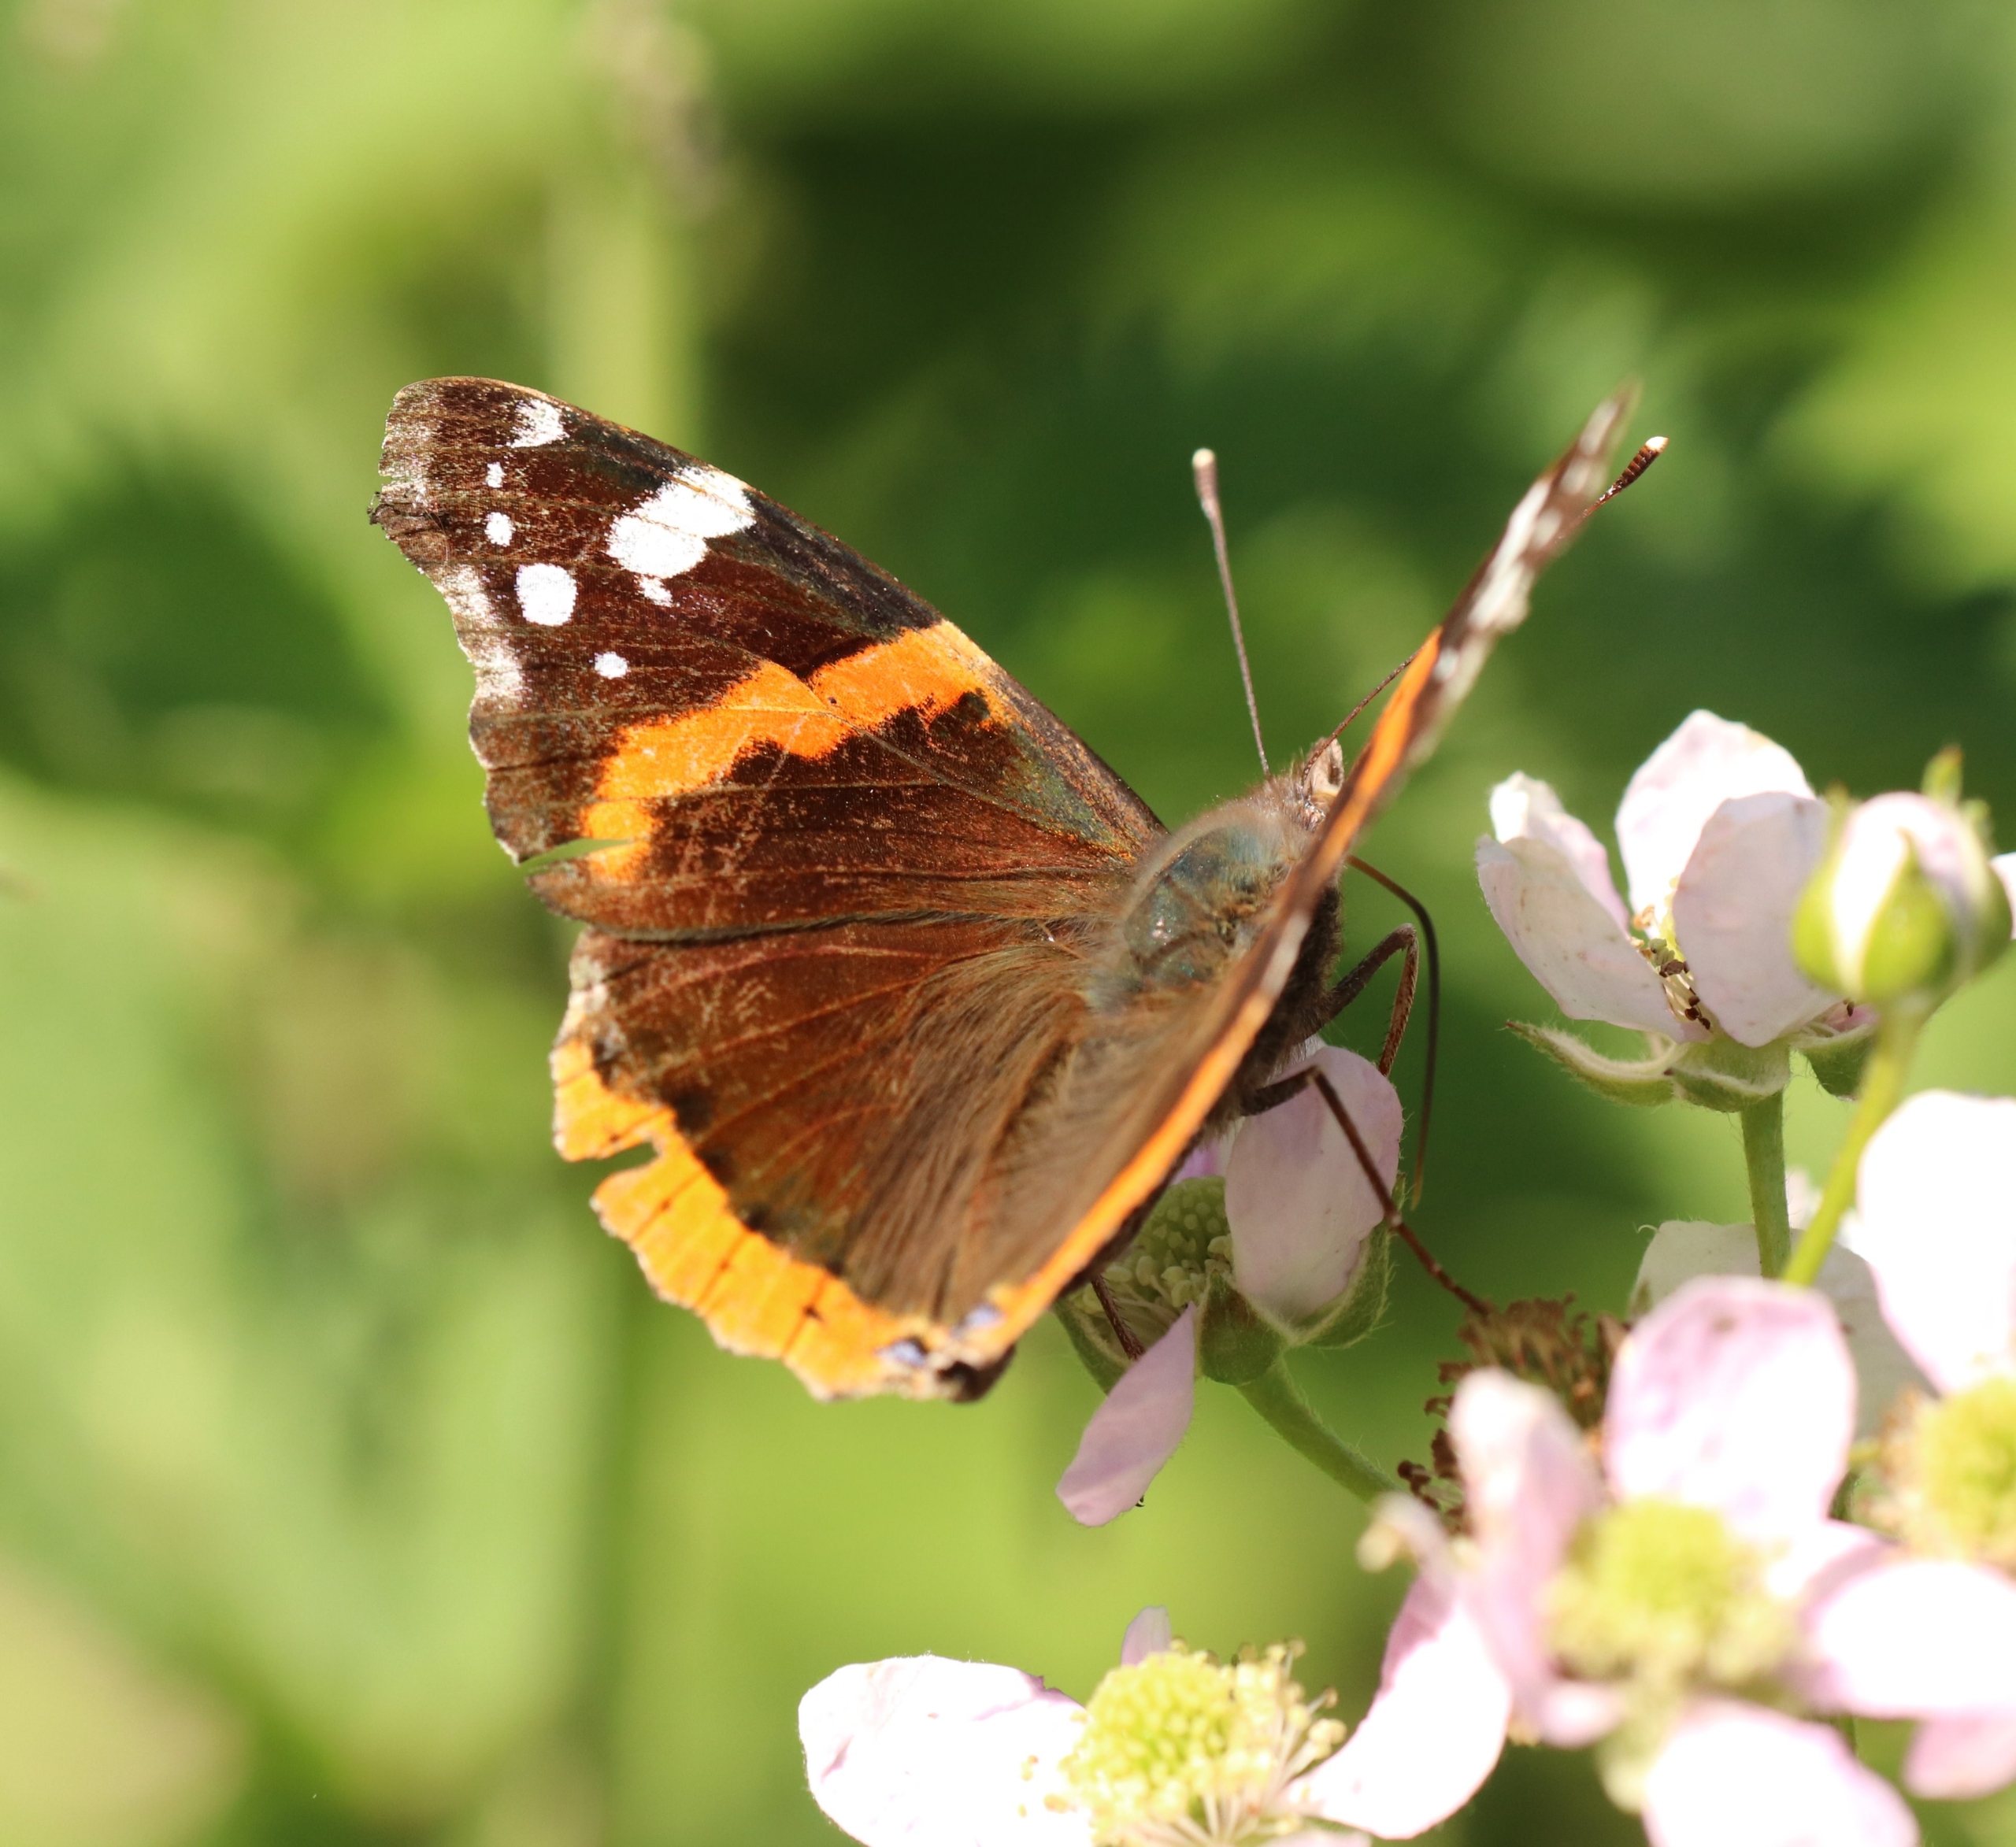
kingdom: Animalia
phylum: Arthropoda
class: Insecta
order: Lepidoptera
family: Nymphalidae
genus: Vanessa
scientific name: Vanessa atalanta
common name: Admiral
